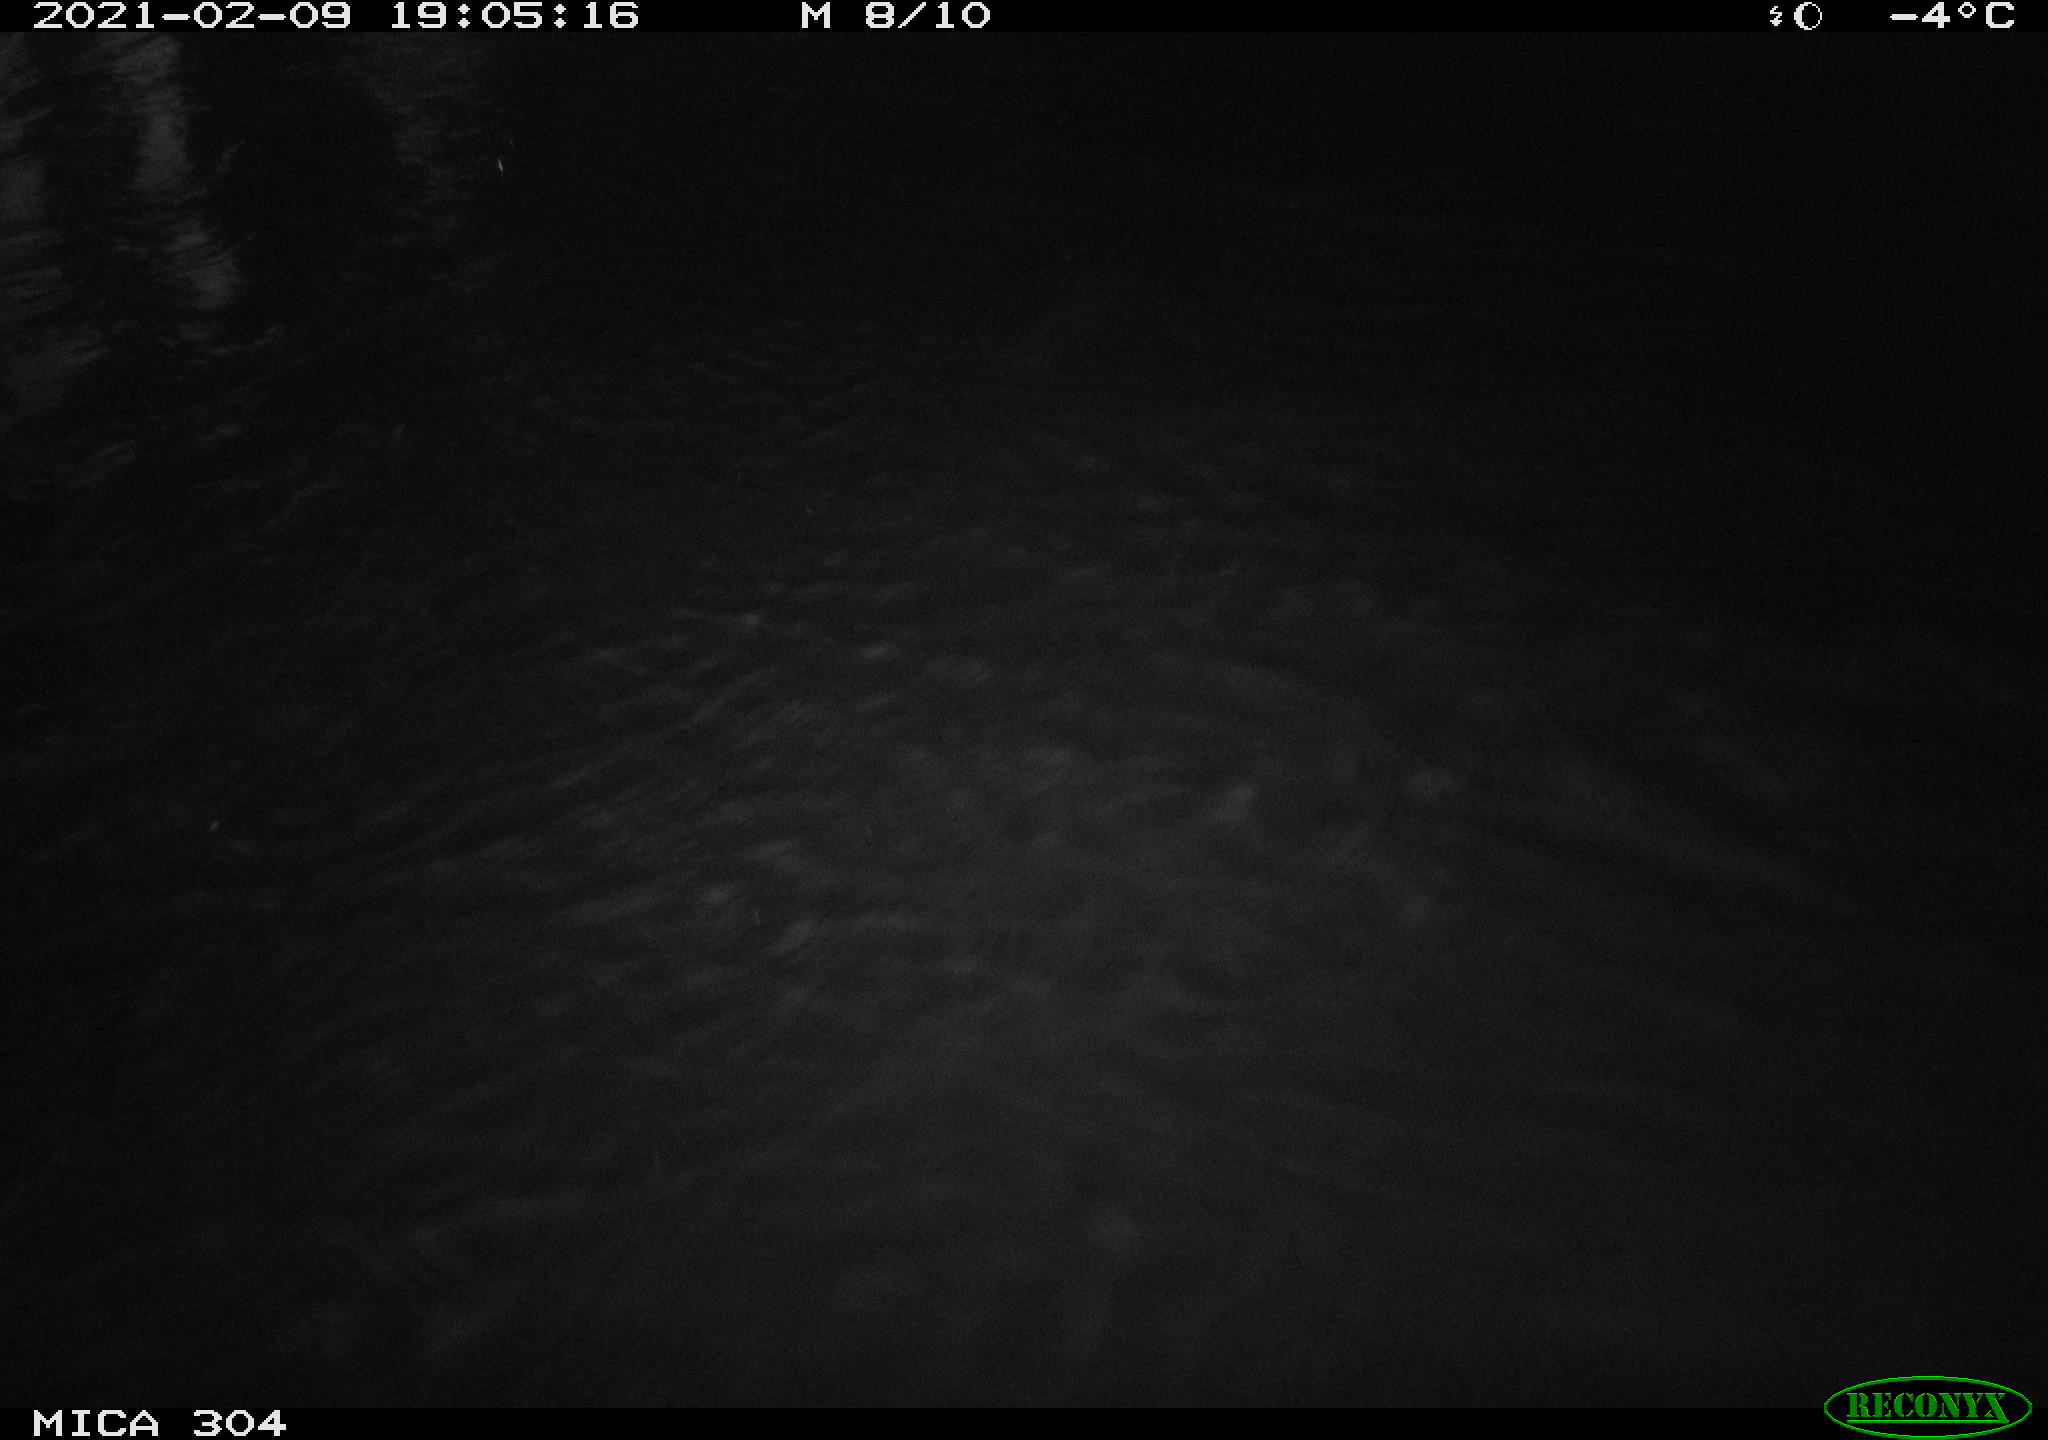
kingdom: Animalia
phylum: Chordata
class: Aves
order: Anseriformes
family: Anatidae
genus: Anas
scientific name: Anas platyrhynchos
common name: Mallard
